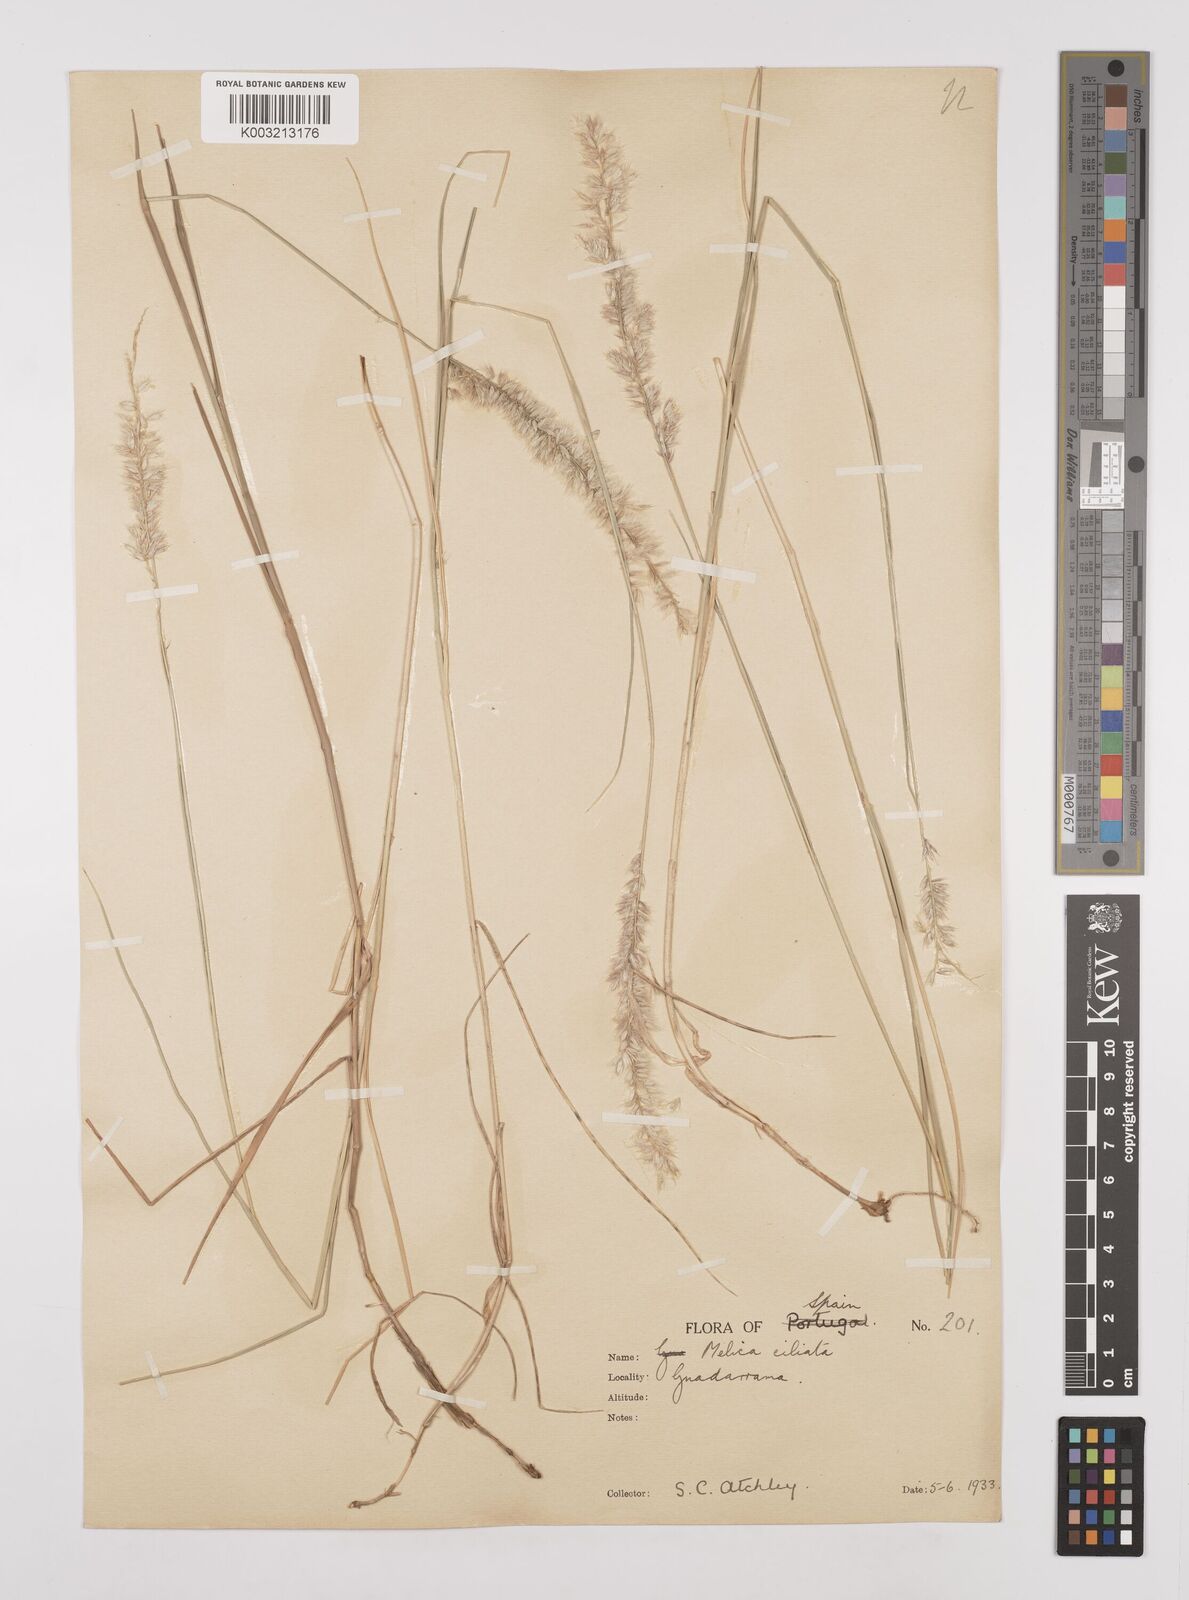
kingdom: Plantae
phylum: Tracheophyta
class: Liliopsida
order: Poales
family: Poaceae
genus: Melica
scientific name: Melica ciliata
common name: Hairy melicgrass
